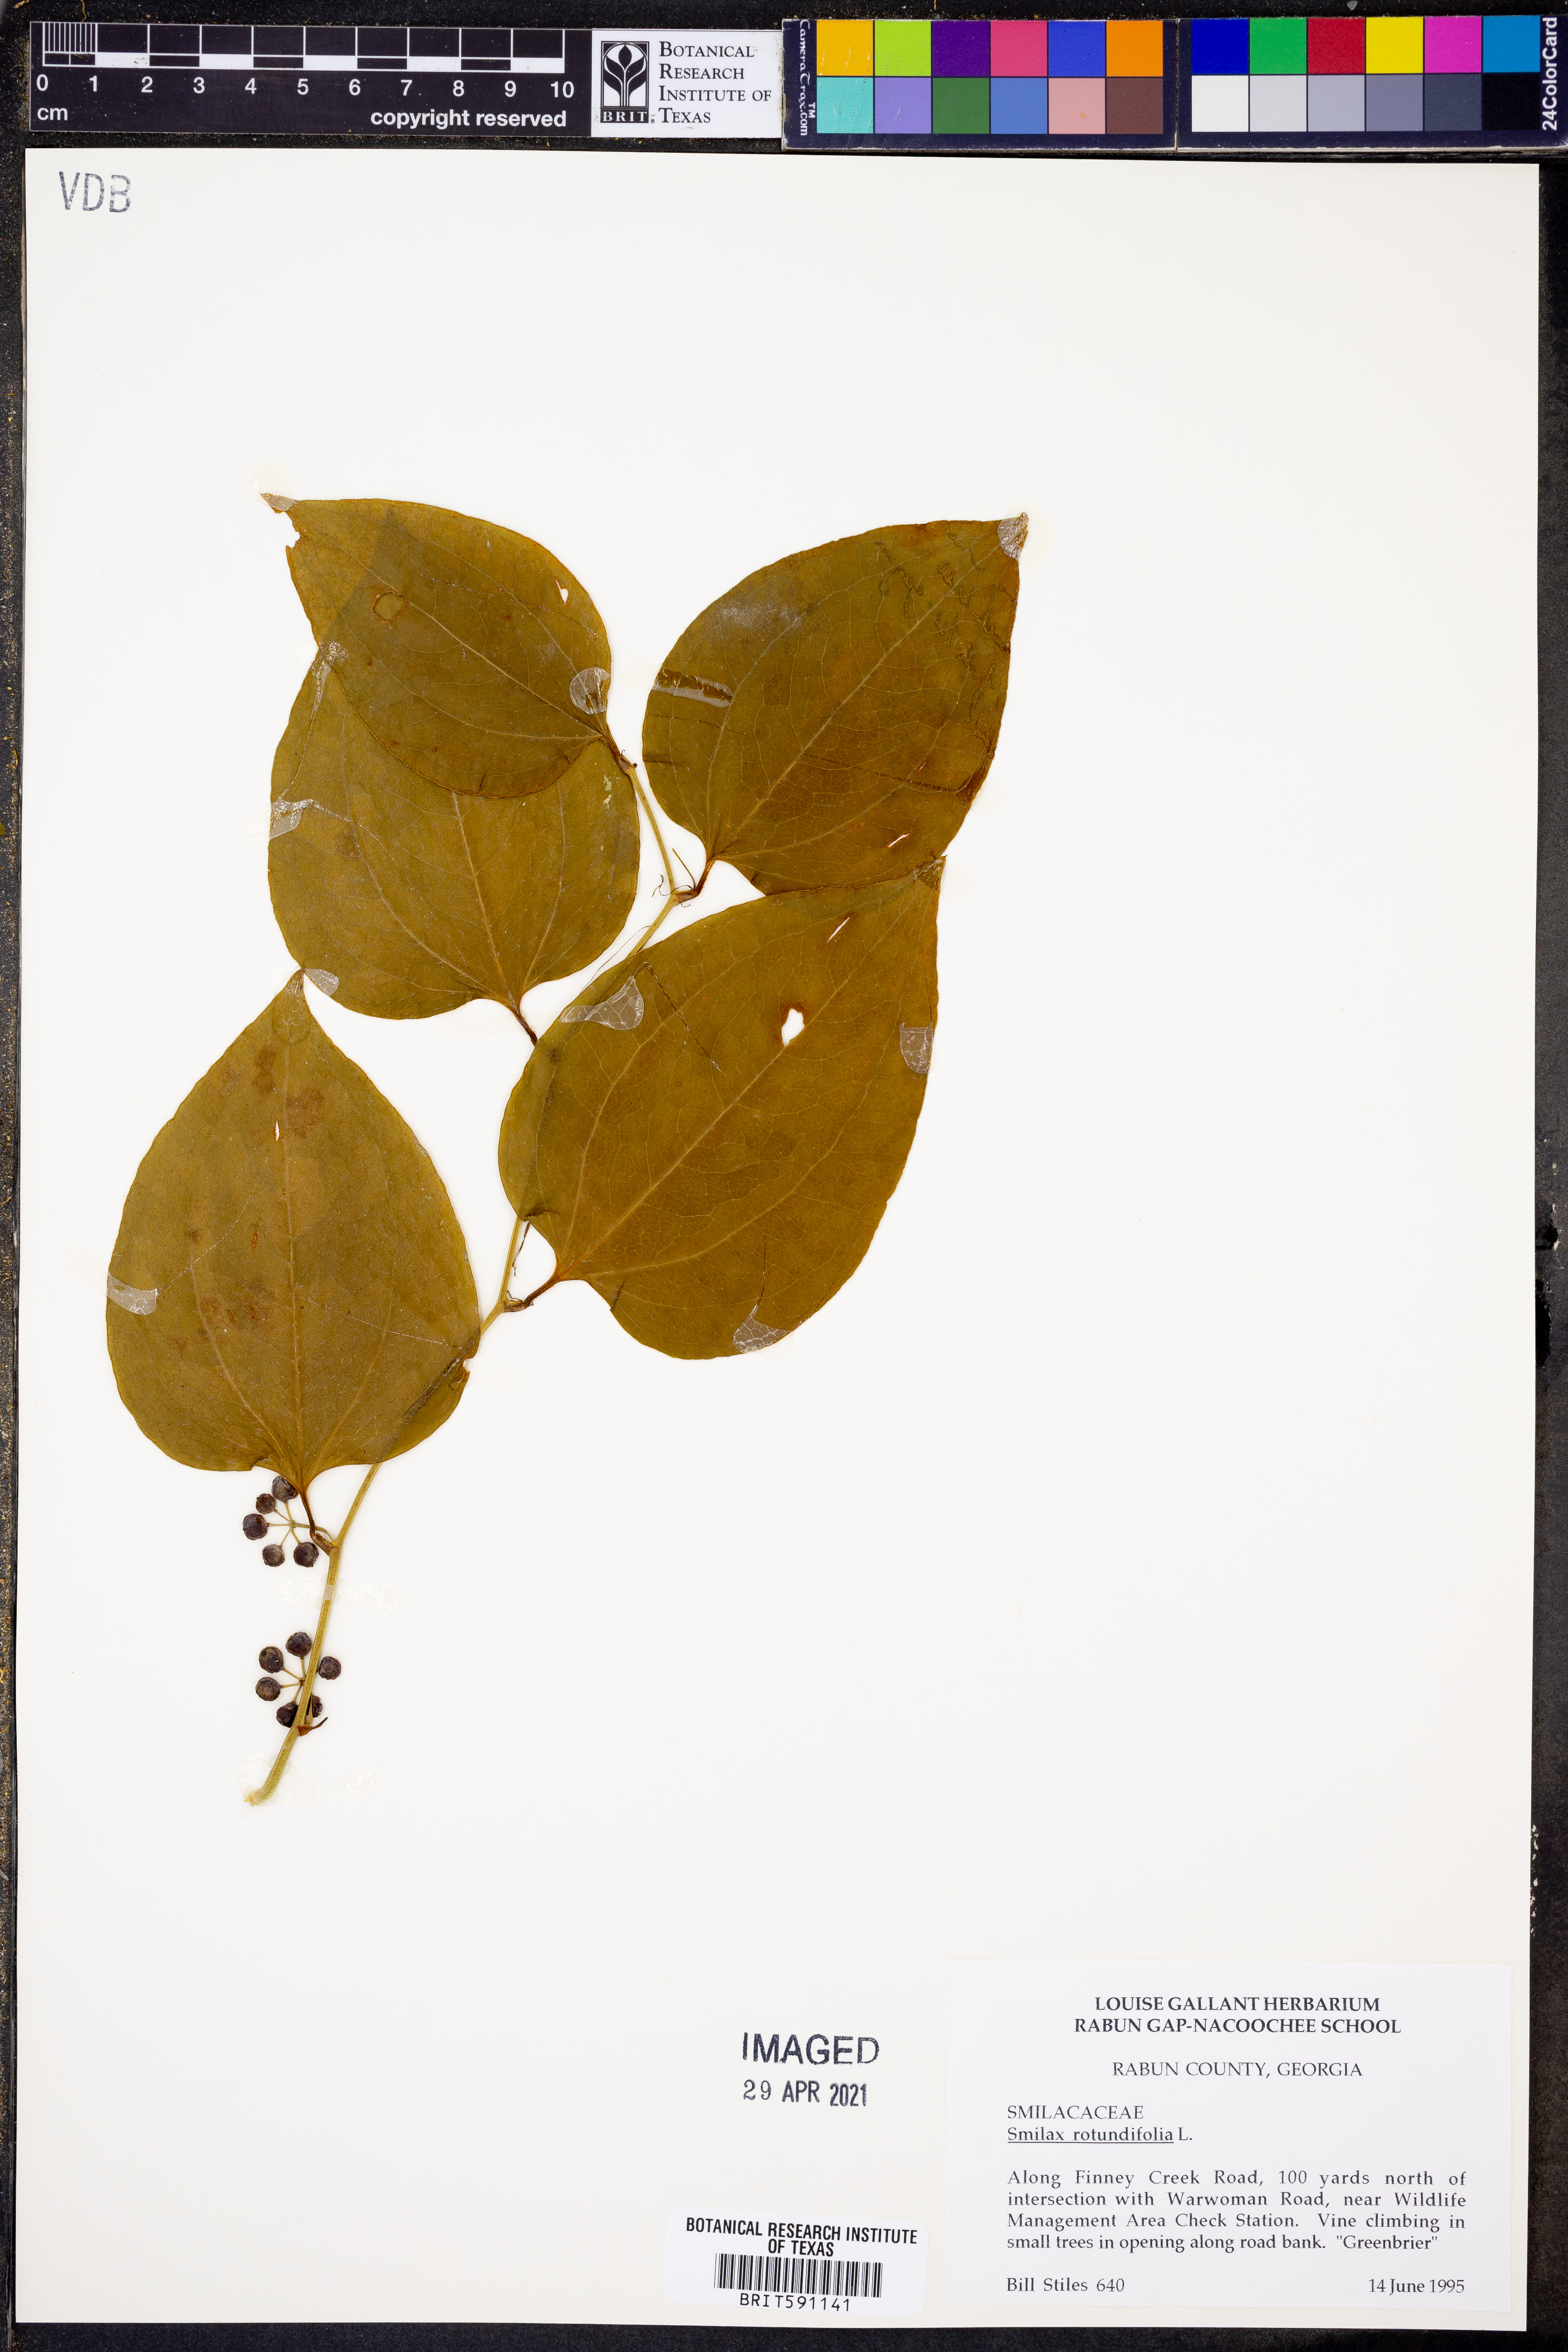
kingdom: Plantae
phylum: Tracheophyta
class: Liliopsida
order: Liliales
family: Smilacaceae
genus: Smilax
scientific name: Smilax rotundifolia
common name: Bullbriar
